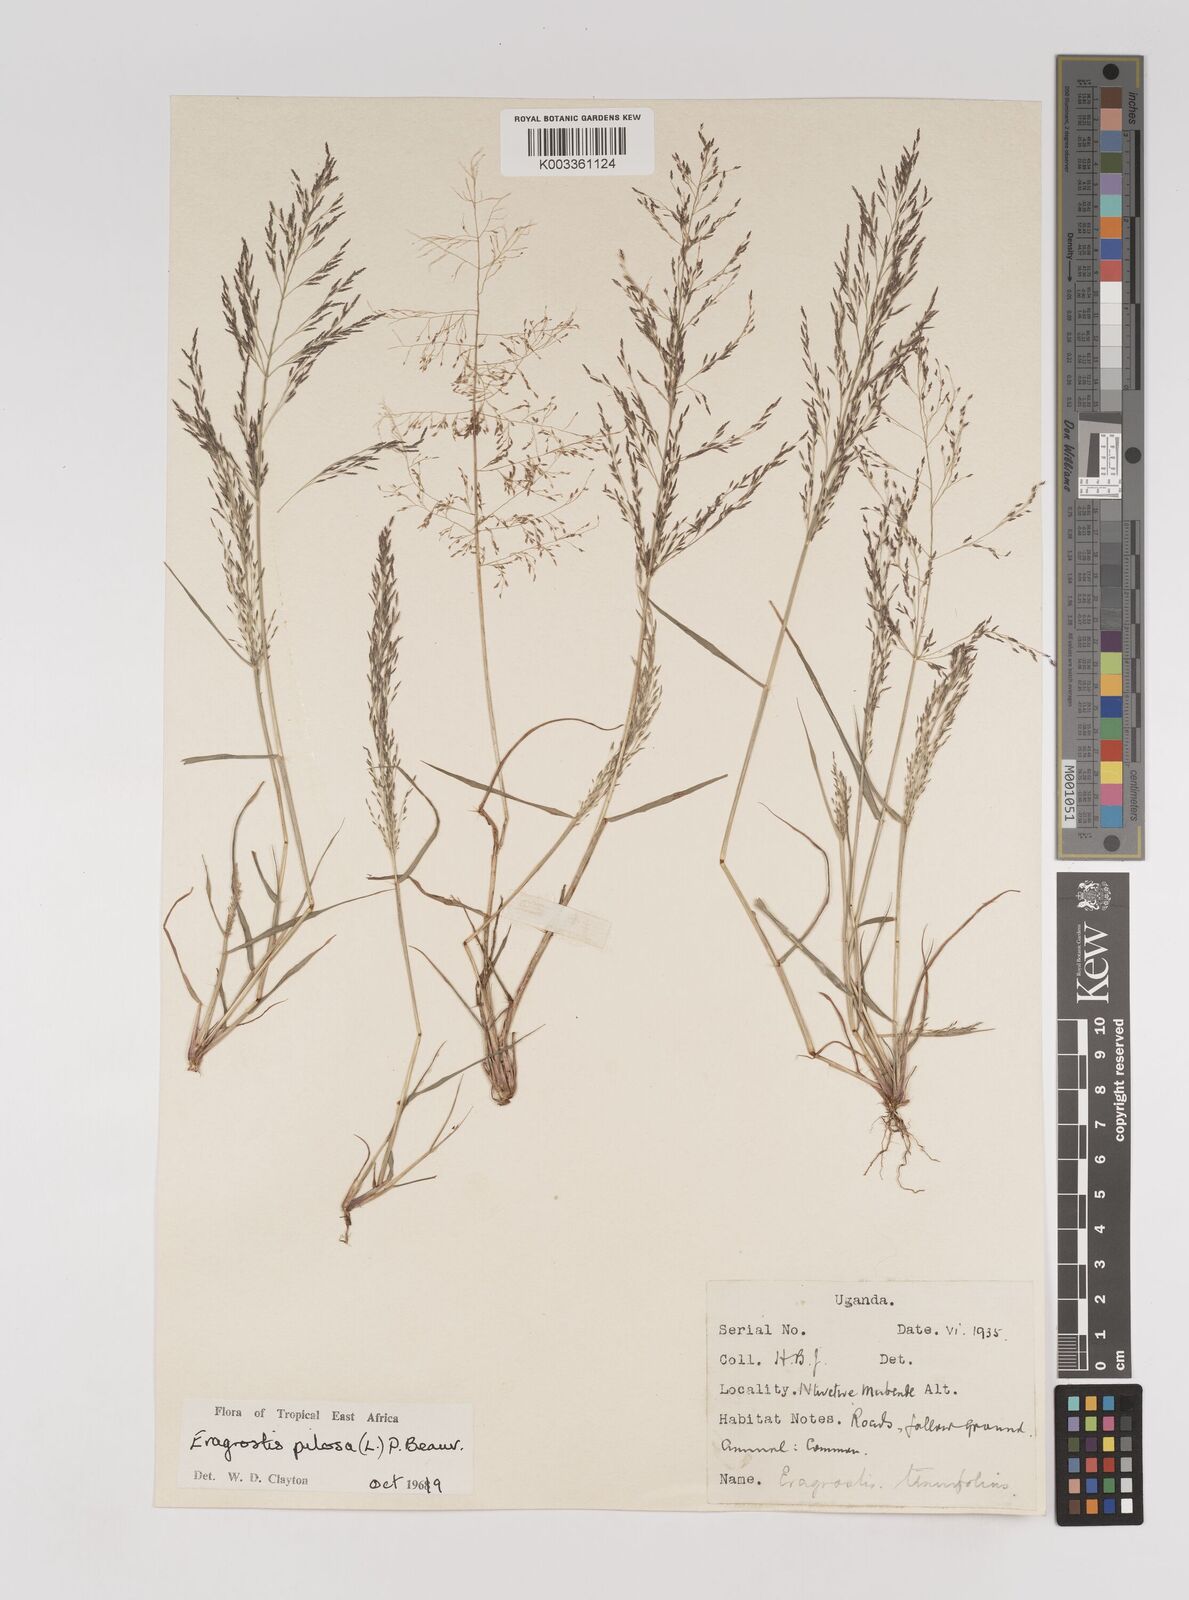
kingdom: Plantae
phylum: Tracheophyta
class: Liliopsida
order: Poales
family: Poaceae
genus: Eragrostis
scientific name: Eragrostis pilosa
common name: Indian lovegrass
